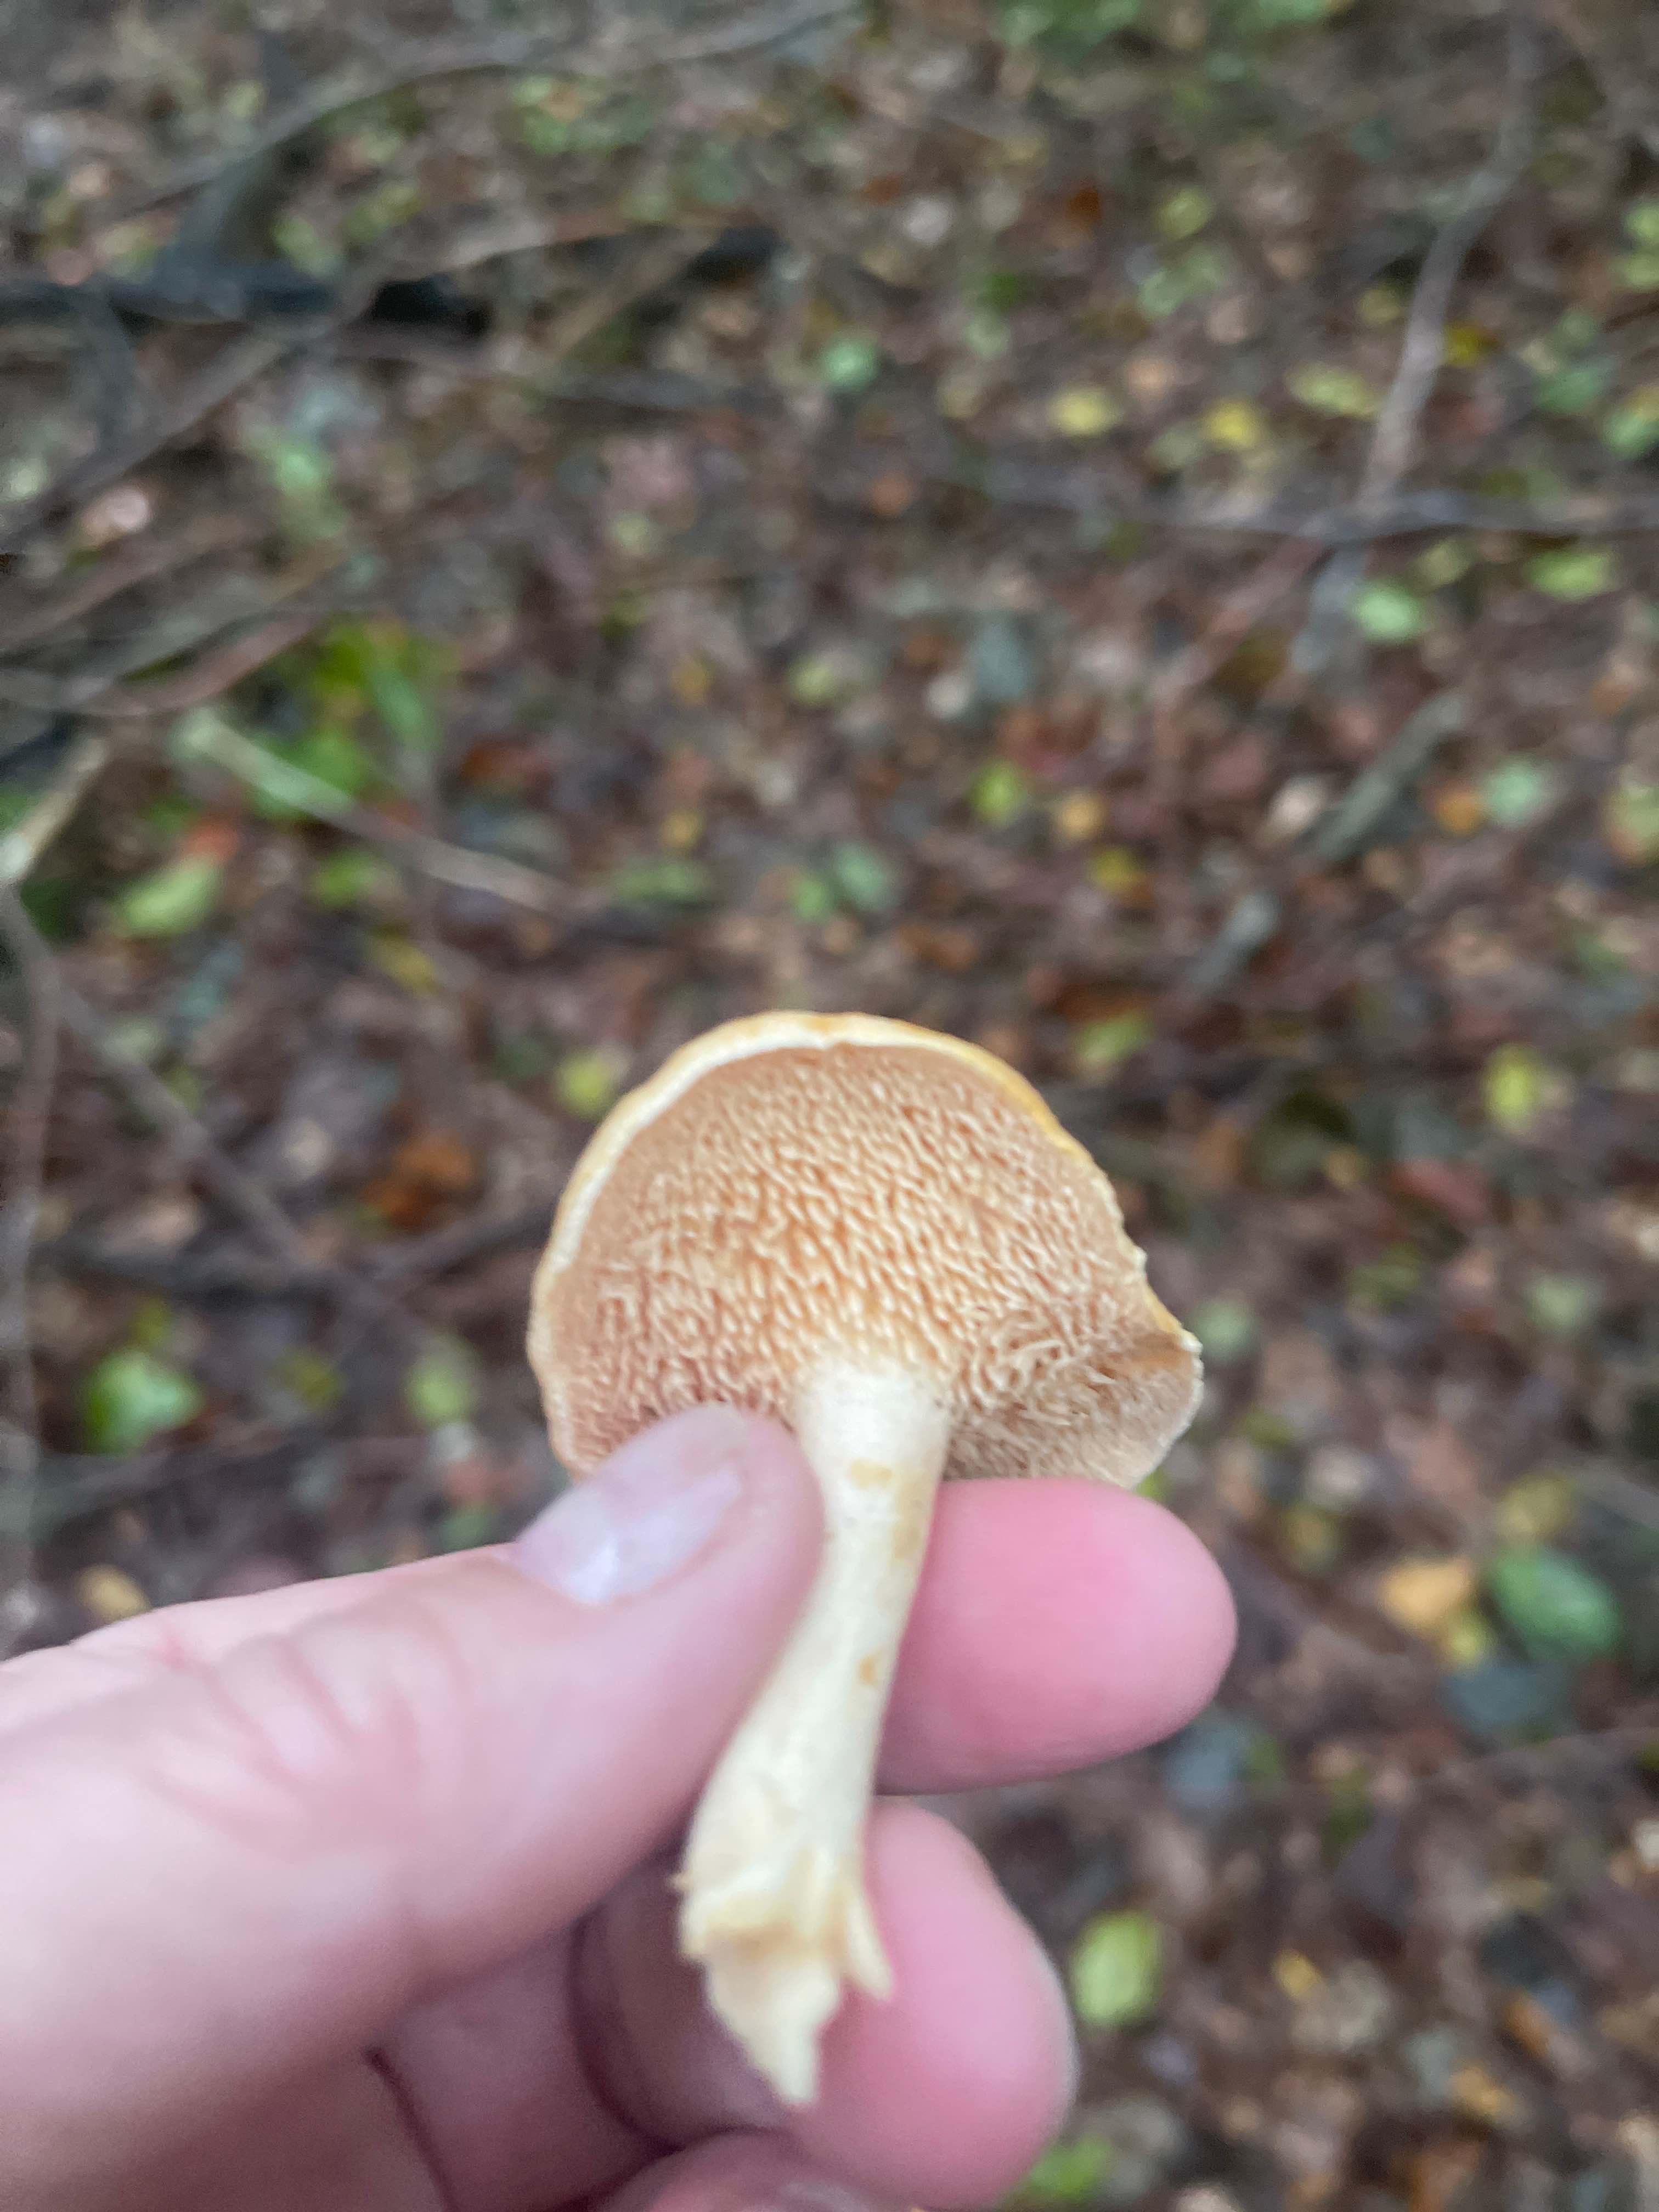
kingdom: Fungi
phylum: Basidiomycota
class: Agaricomycetes
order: Cantharellales
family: Hydnaceae
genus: Hydnum
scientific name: Hydnum
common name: pigsvamp
